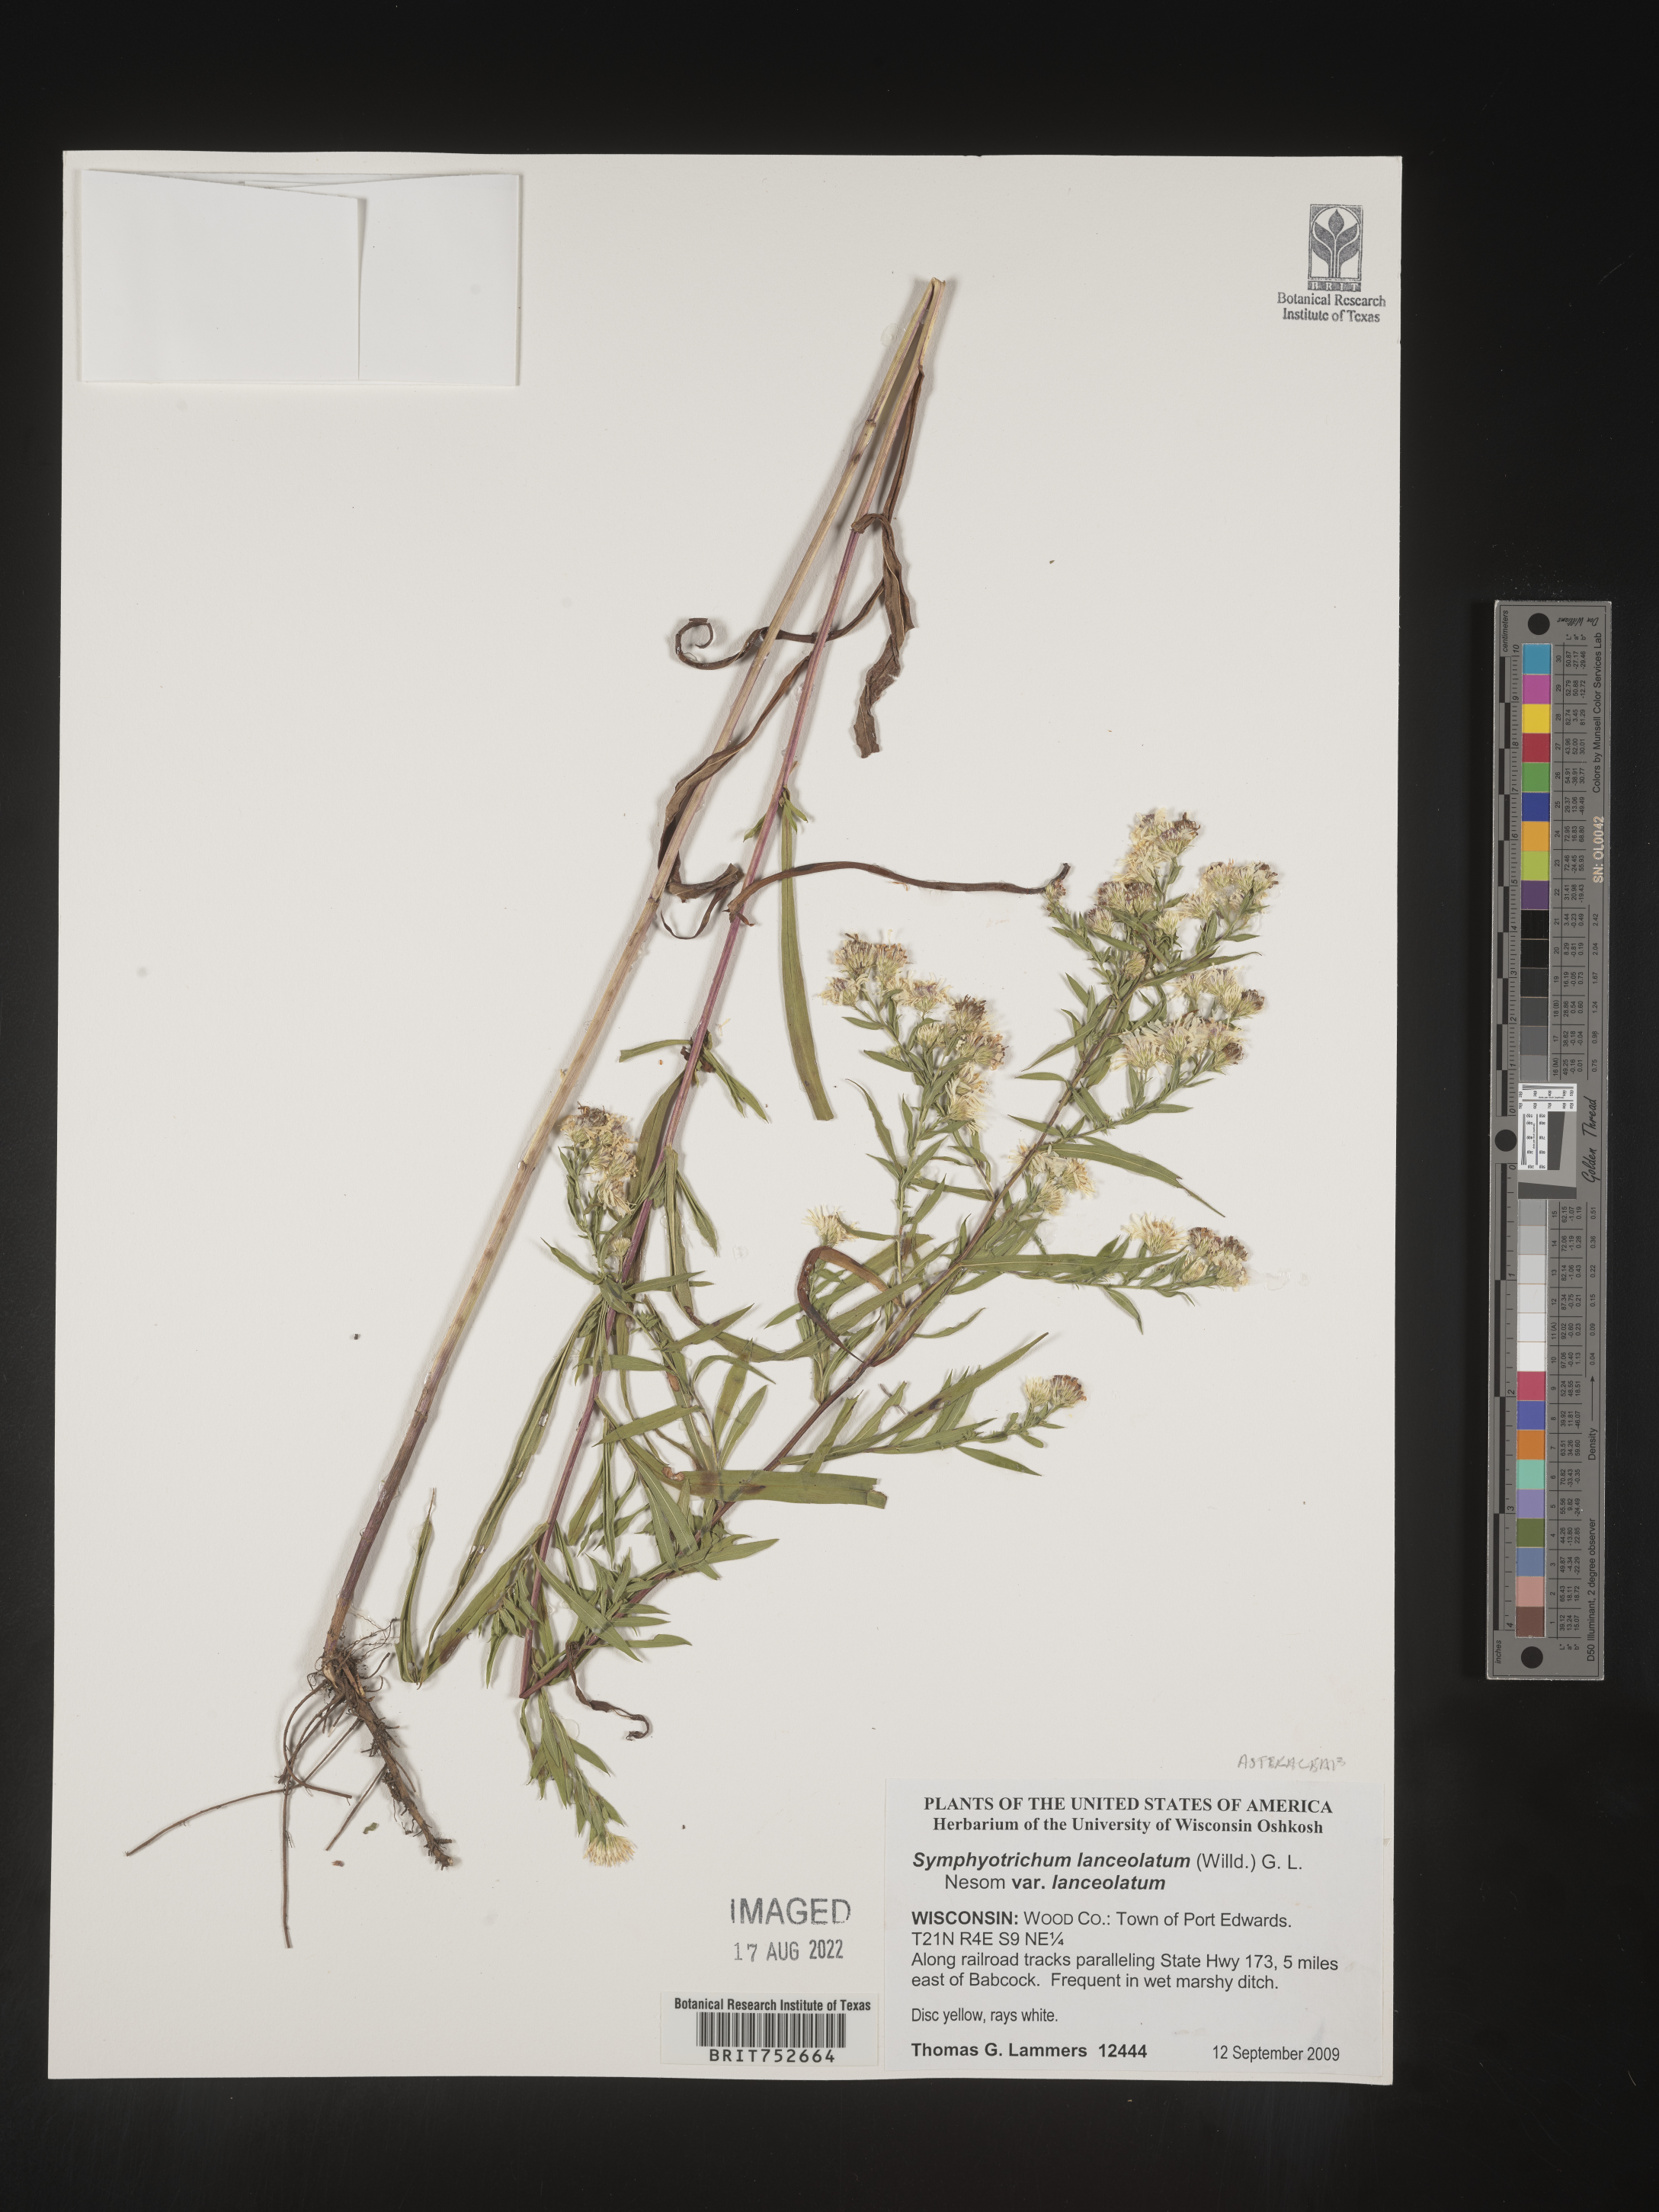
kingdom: Plantae
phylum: Tracheophyta
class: Magnoliopsida
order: Asterales
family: Asteraceae
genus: Symphyotrichum
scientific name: Symphyotrichum lanceolatum
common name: Panicled aster
